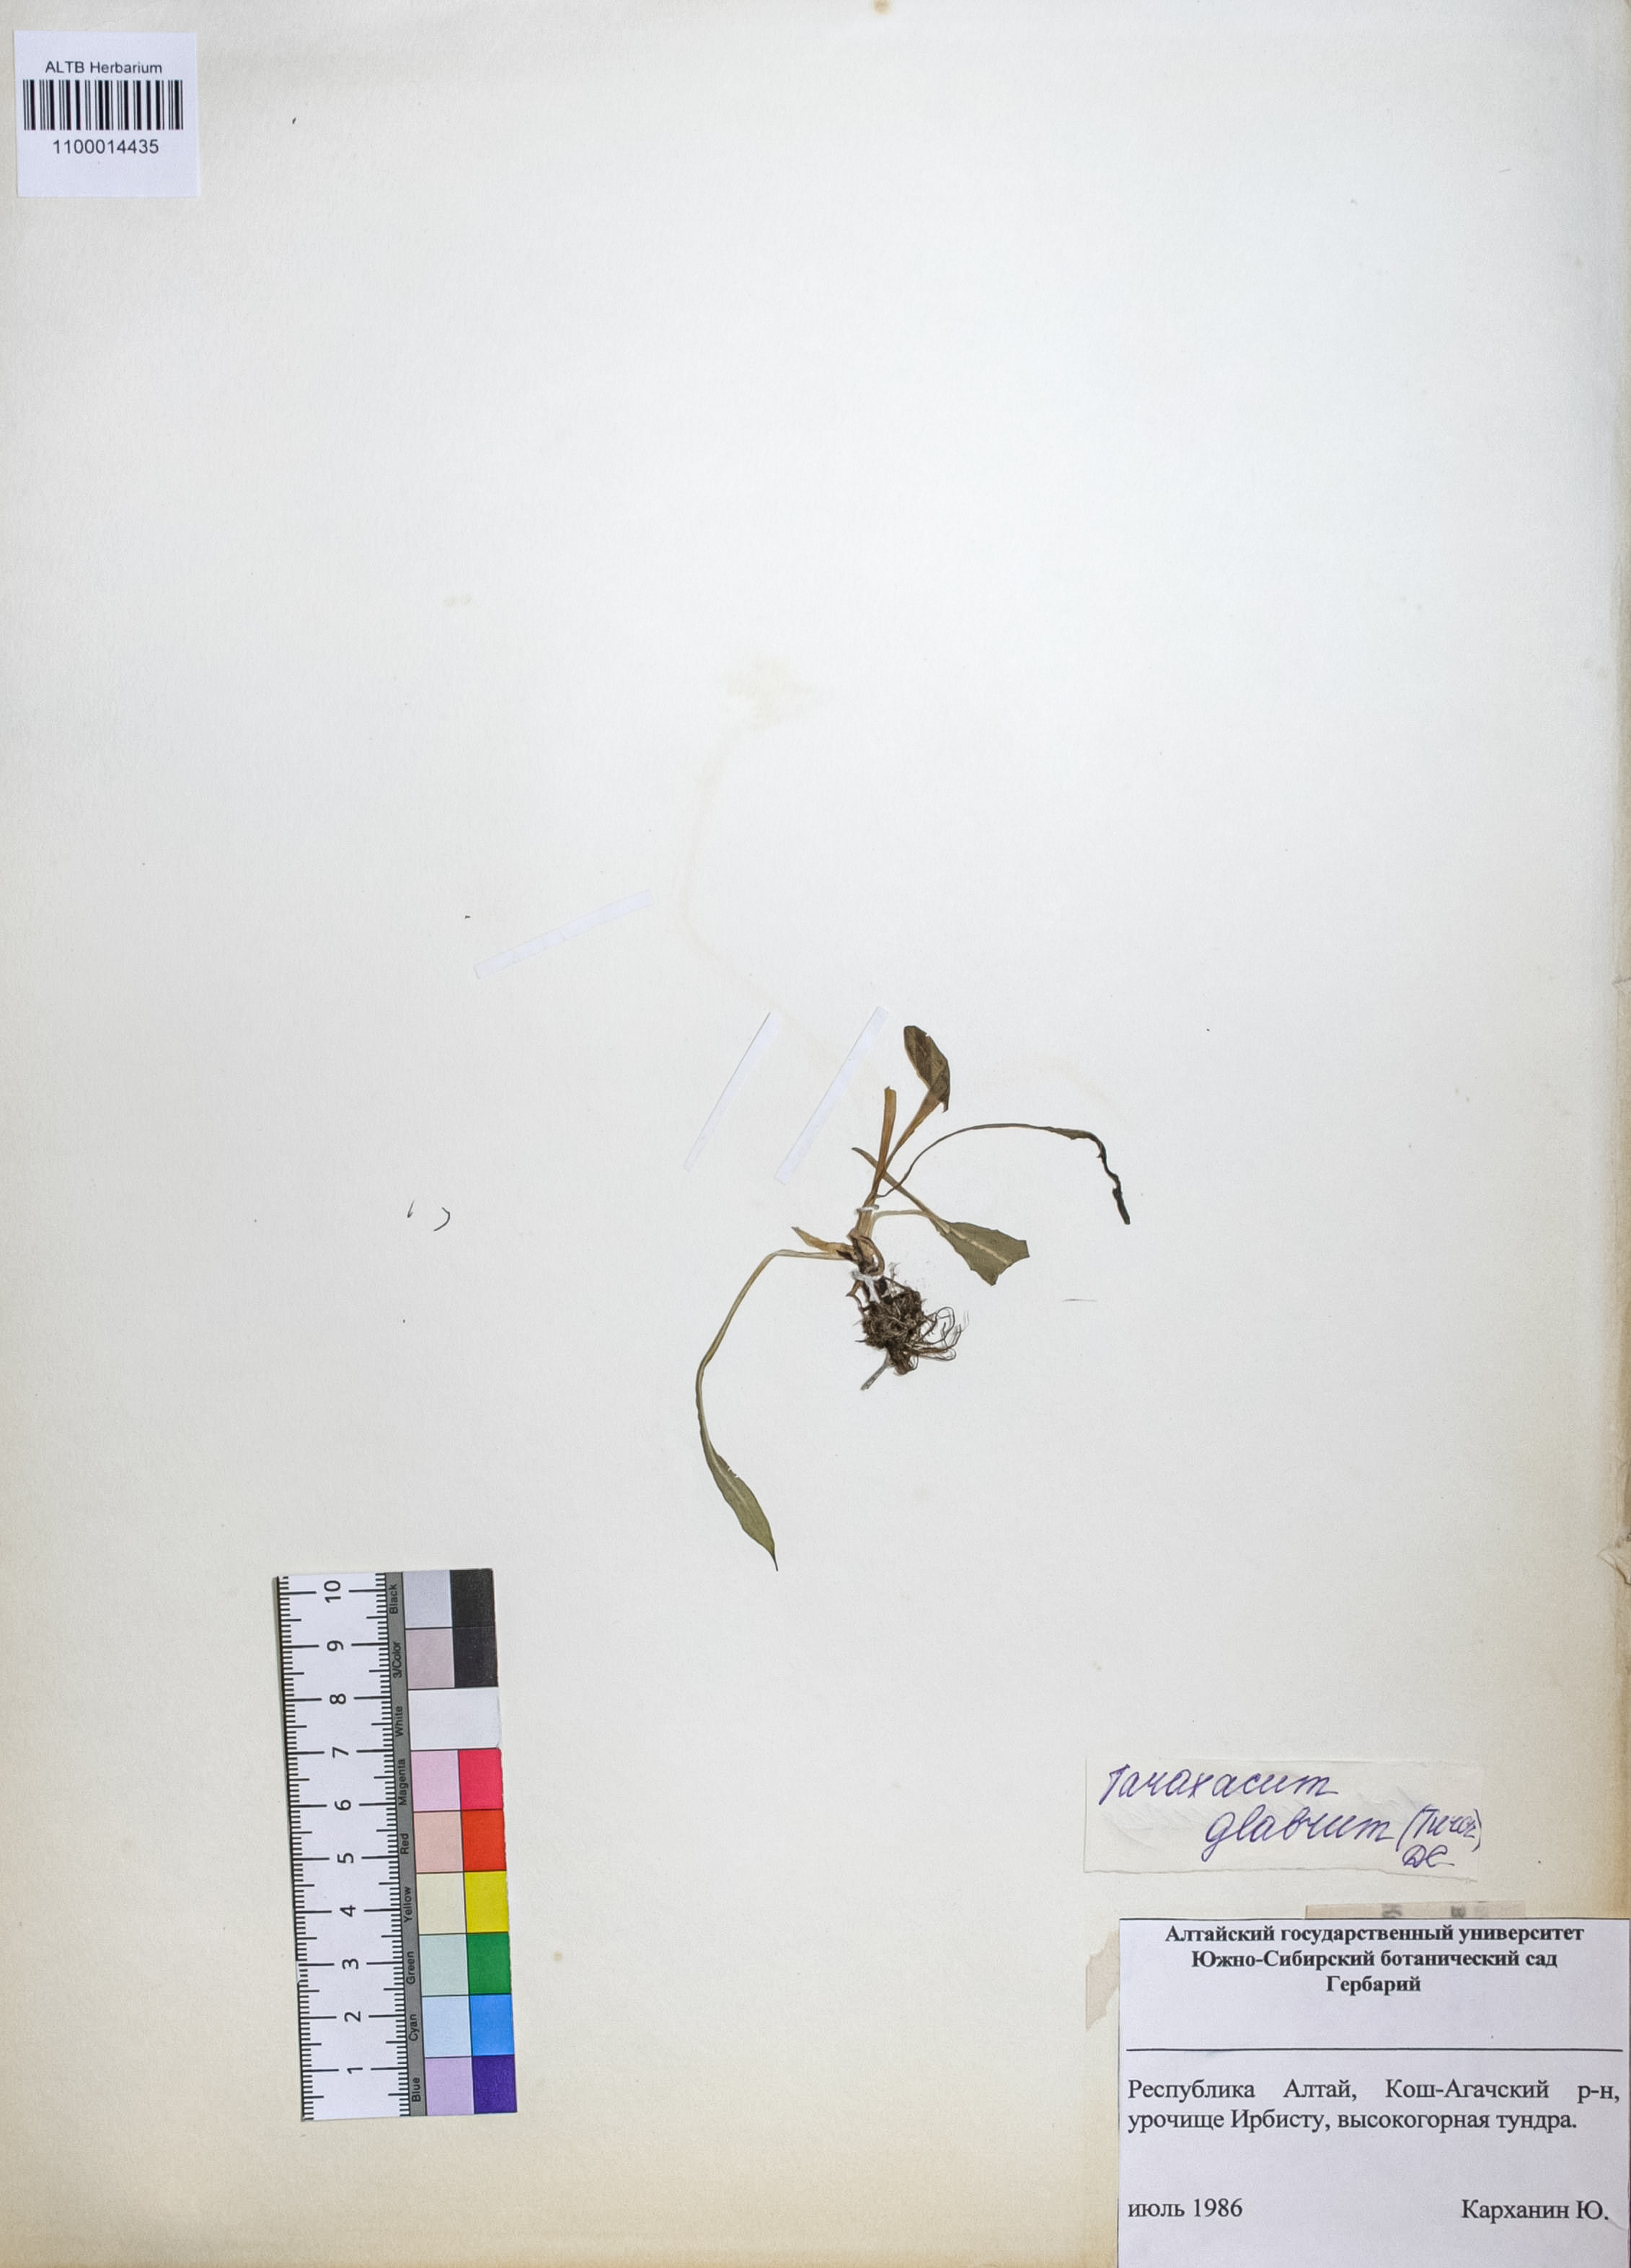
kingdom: Plantae
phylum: Tracheophyta
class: Magnoliopsida
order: Asterales
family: Asteraceae
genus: Taraxacum
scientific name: Taraxacum glabrum
